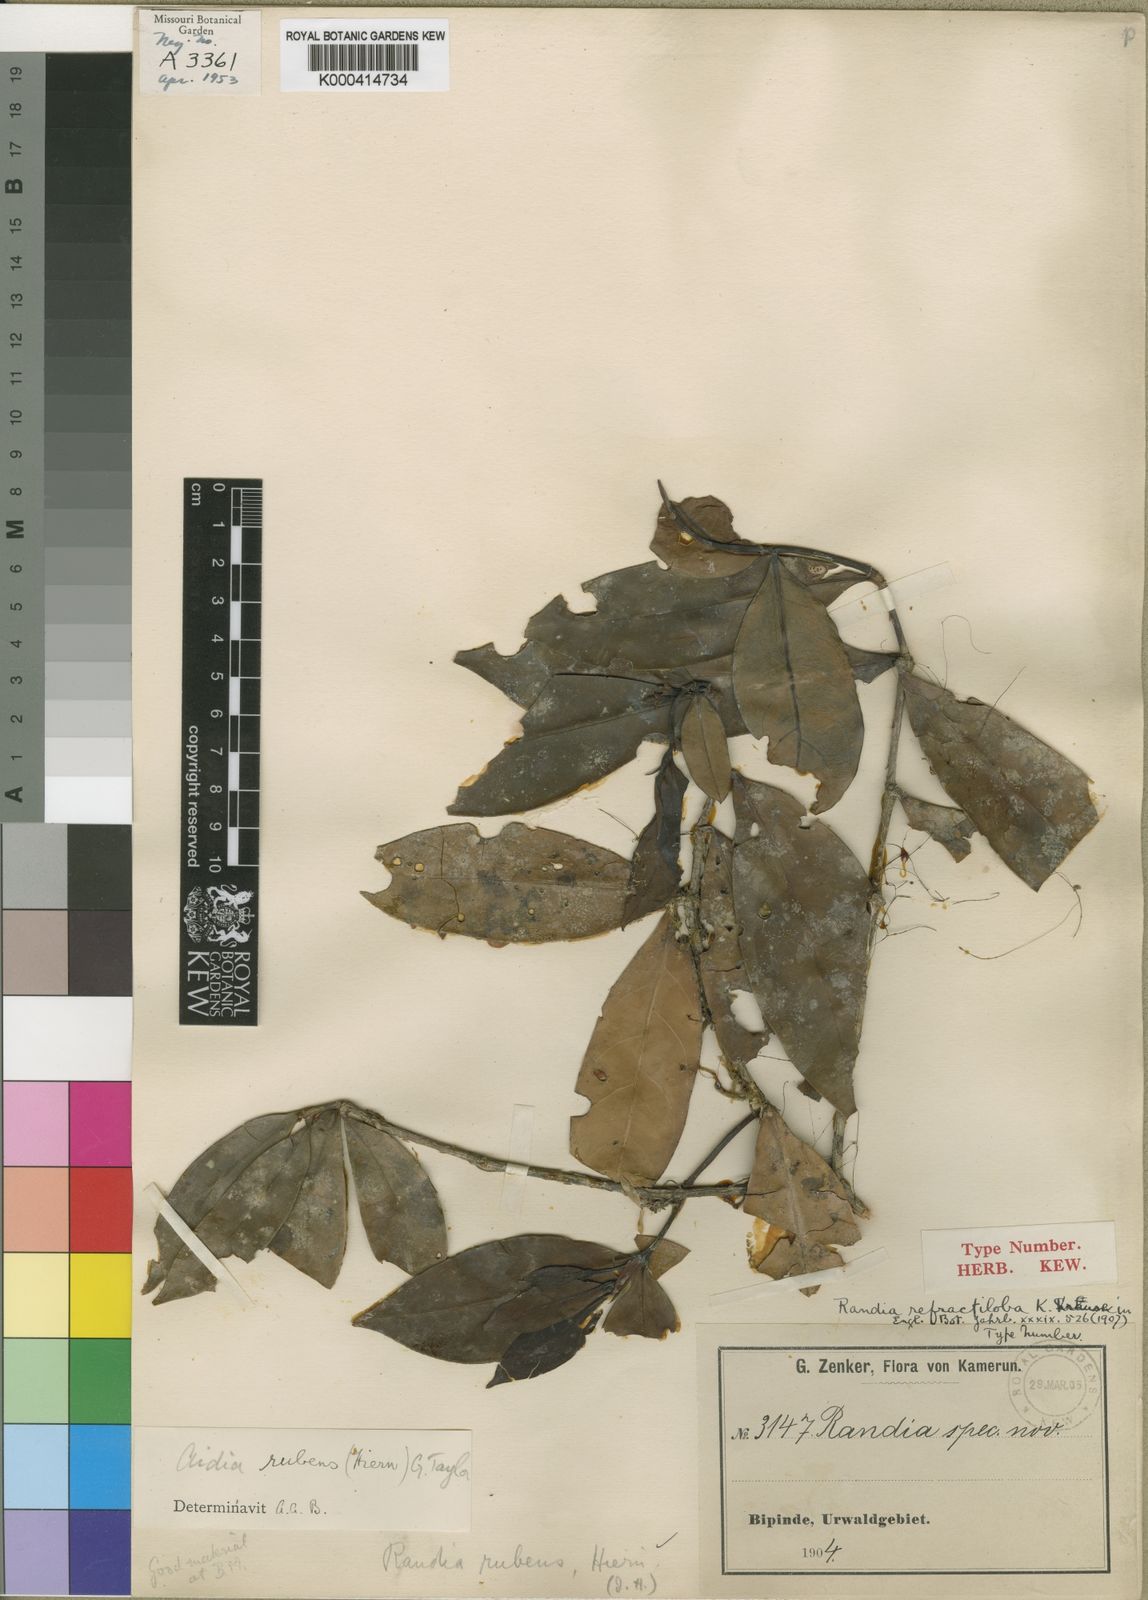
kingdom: Plantae
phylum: Tracheophyta
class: Magnoliopsida
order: Gentianales
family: Rubiaceae
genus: Aidia
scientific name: Aidia rubens
